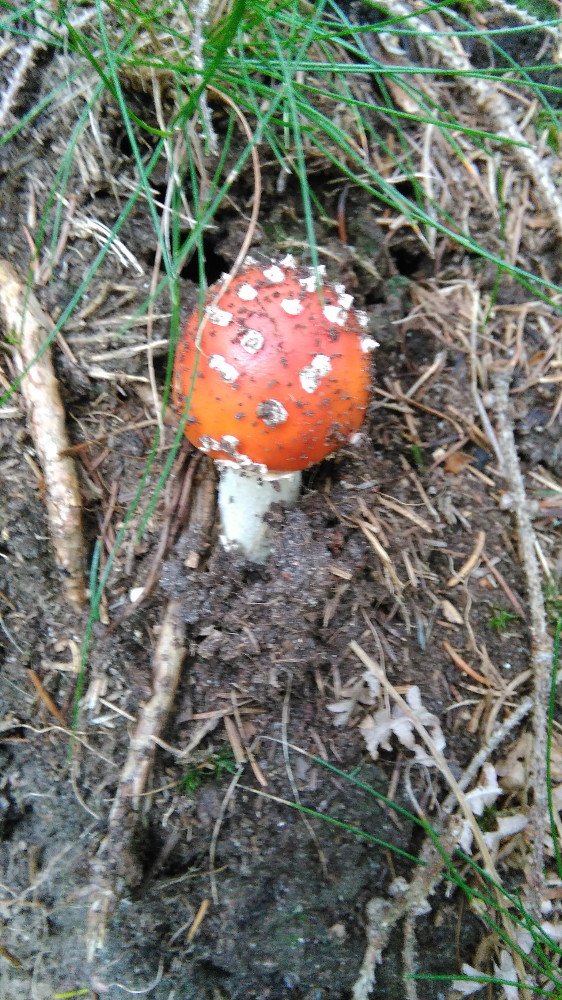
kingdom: Fungi
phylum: Basidiomycota
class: Agaricomycetes
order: Agaricales
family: Amanitaceae
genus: Amanita
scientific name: Amanita muscaria
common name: rød fluesvamp
